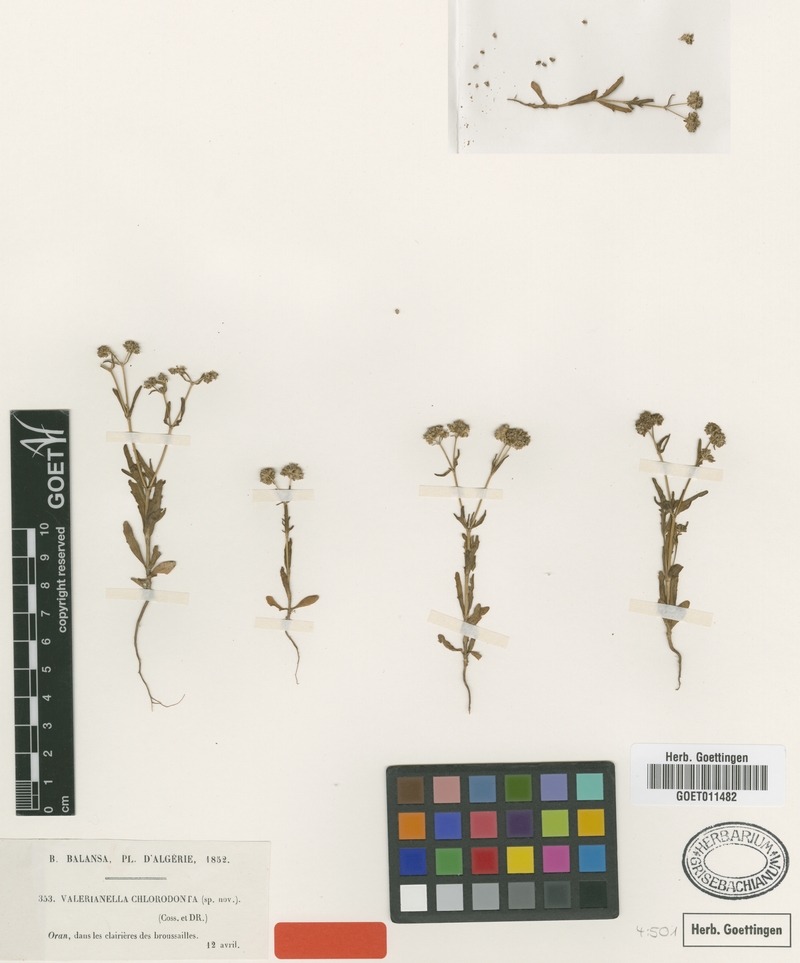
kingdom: Plantae
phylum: Tracheophyta
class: Magnoliopsida
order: Dipsacales
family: Caprifoliaceae
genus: Valerianella
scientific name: Valerianella chlorodonta
